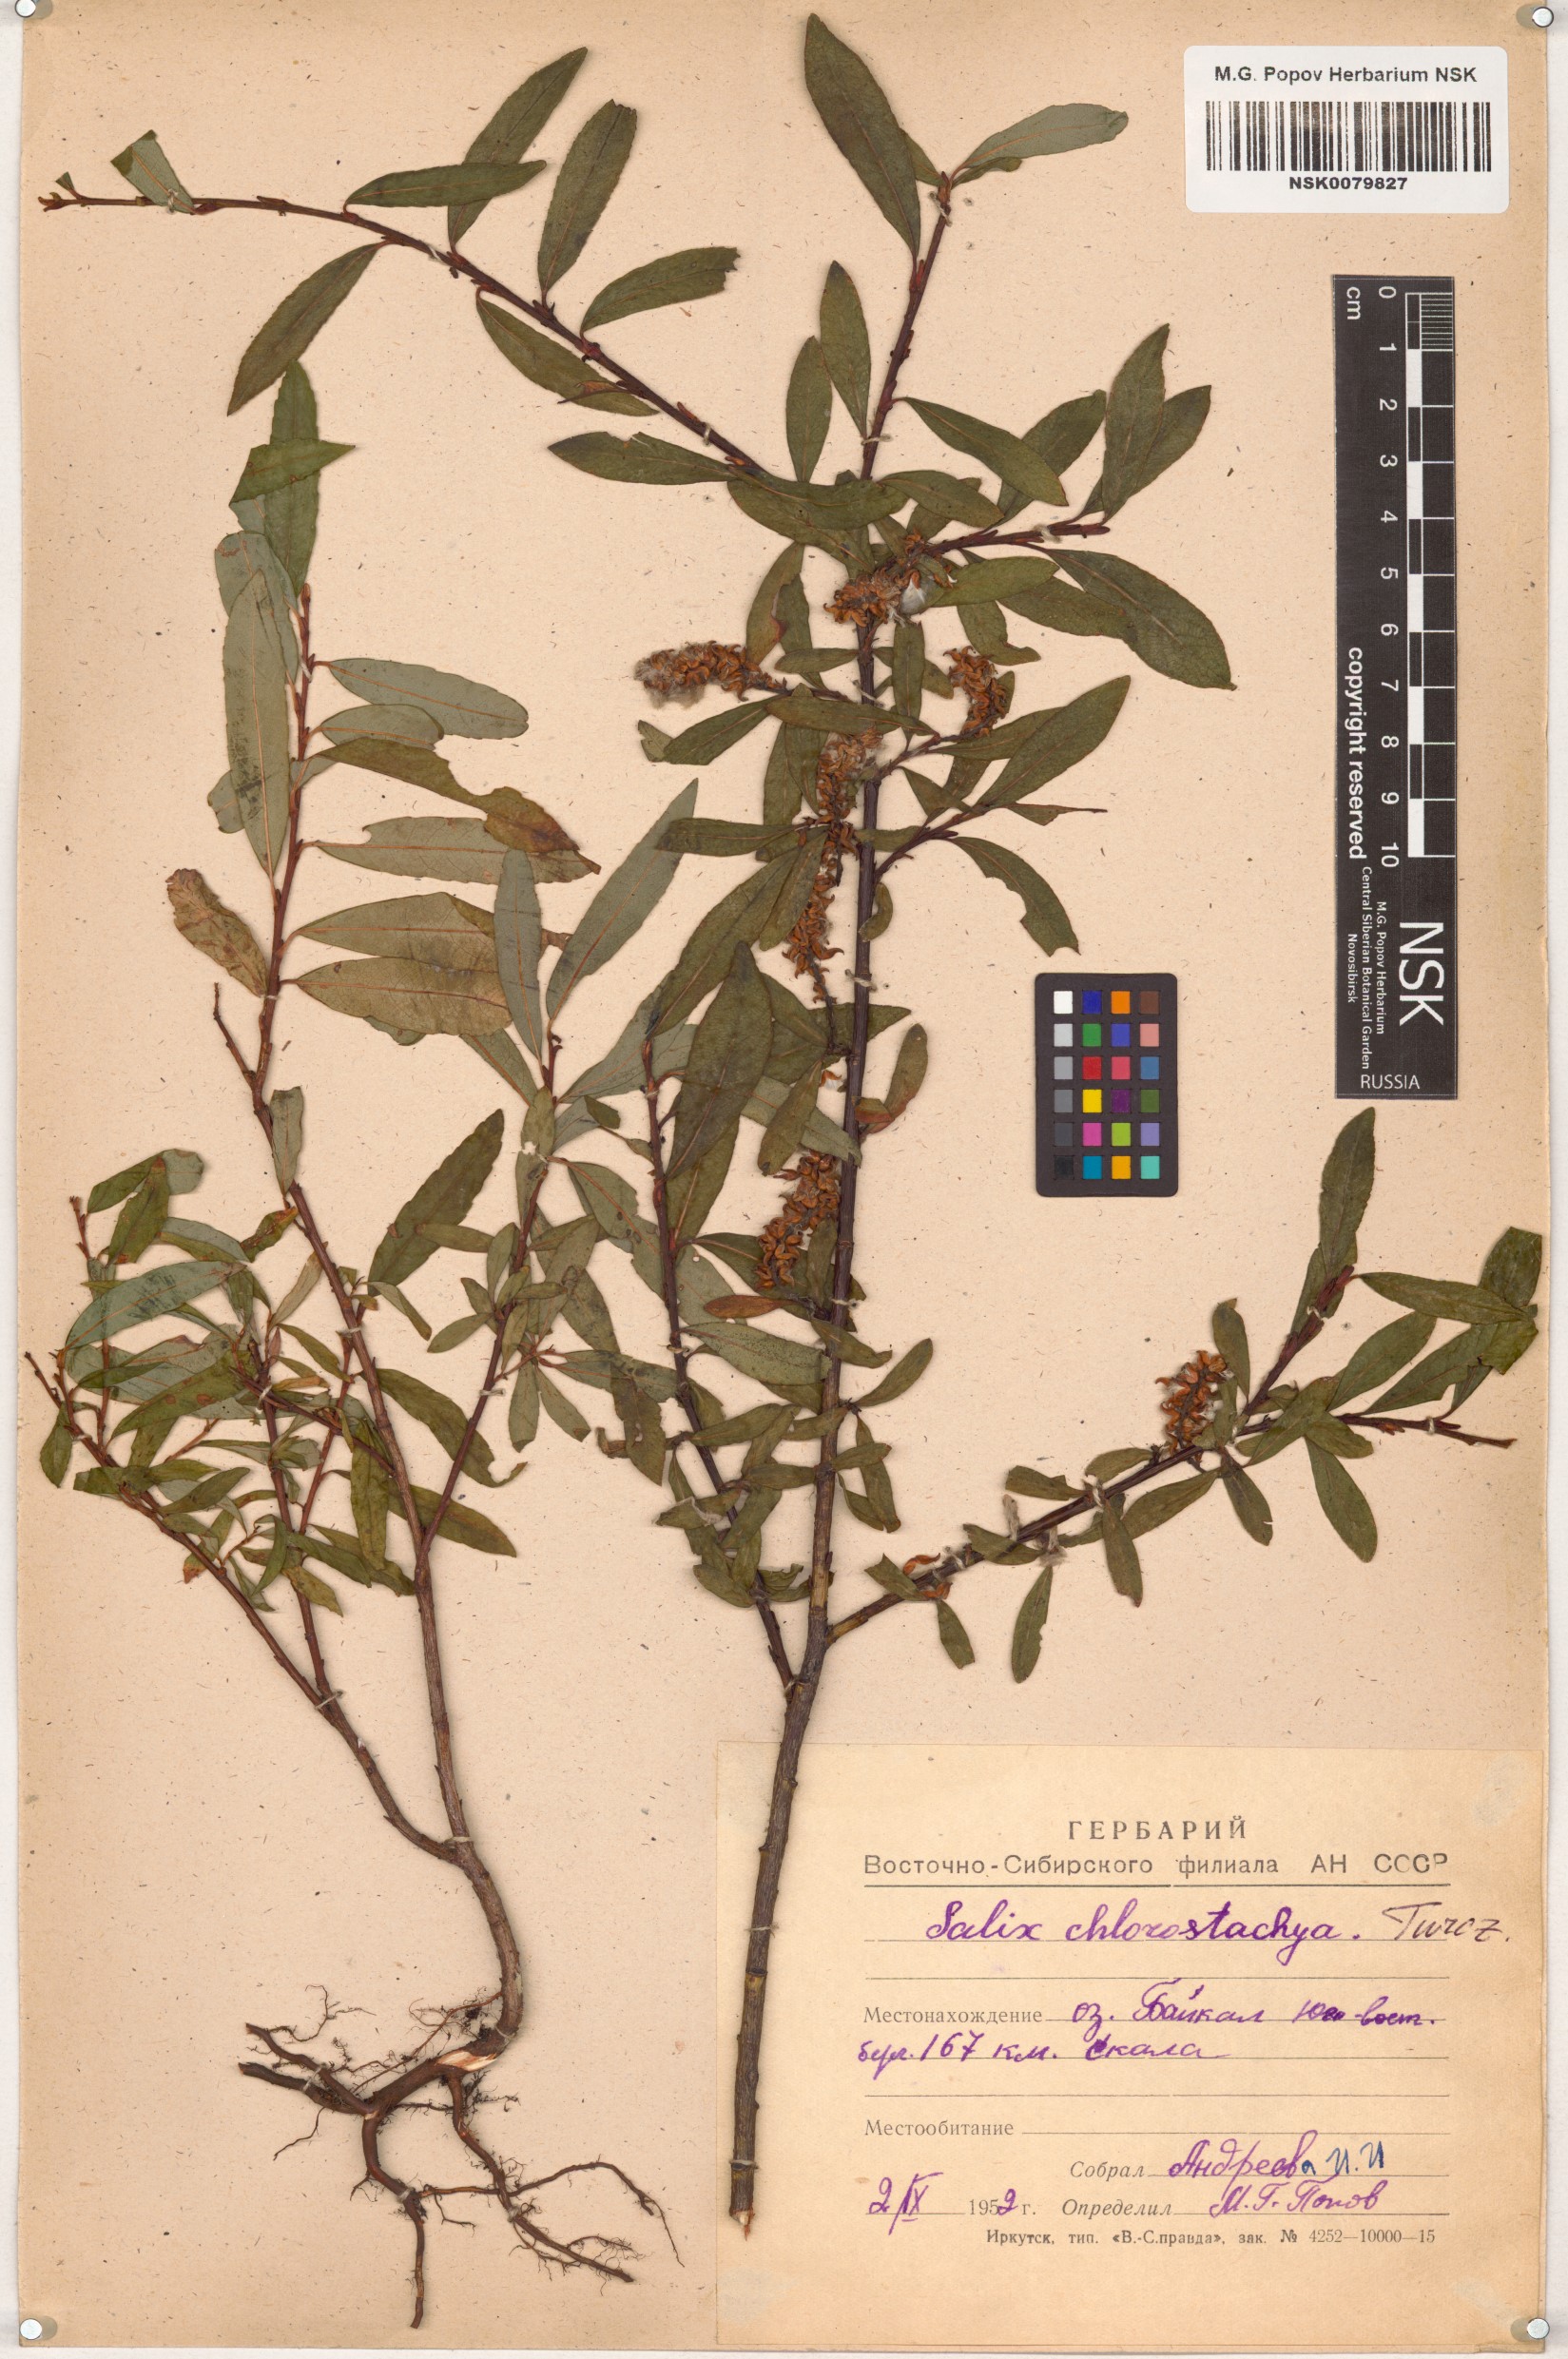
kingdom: Plantae
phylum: Tracheophyta
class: Magnoliopsida
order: Malpighiales
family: Salicaceae
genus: Salix
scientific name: Salix rhamnifolia
